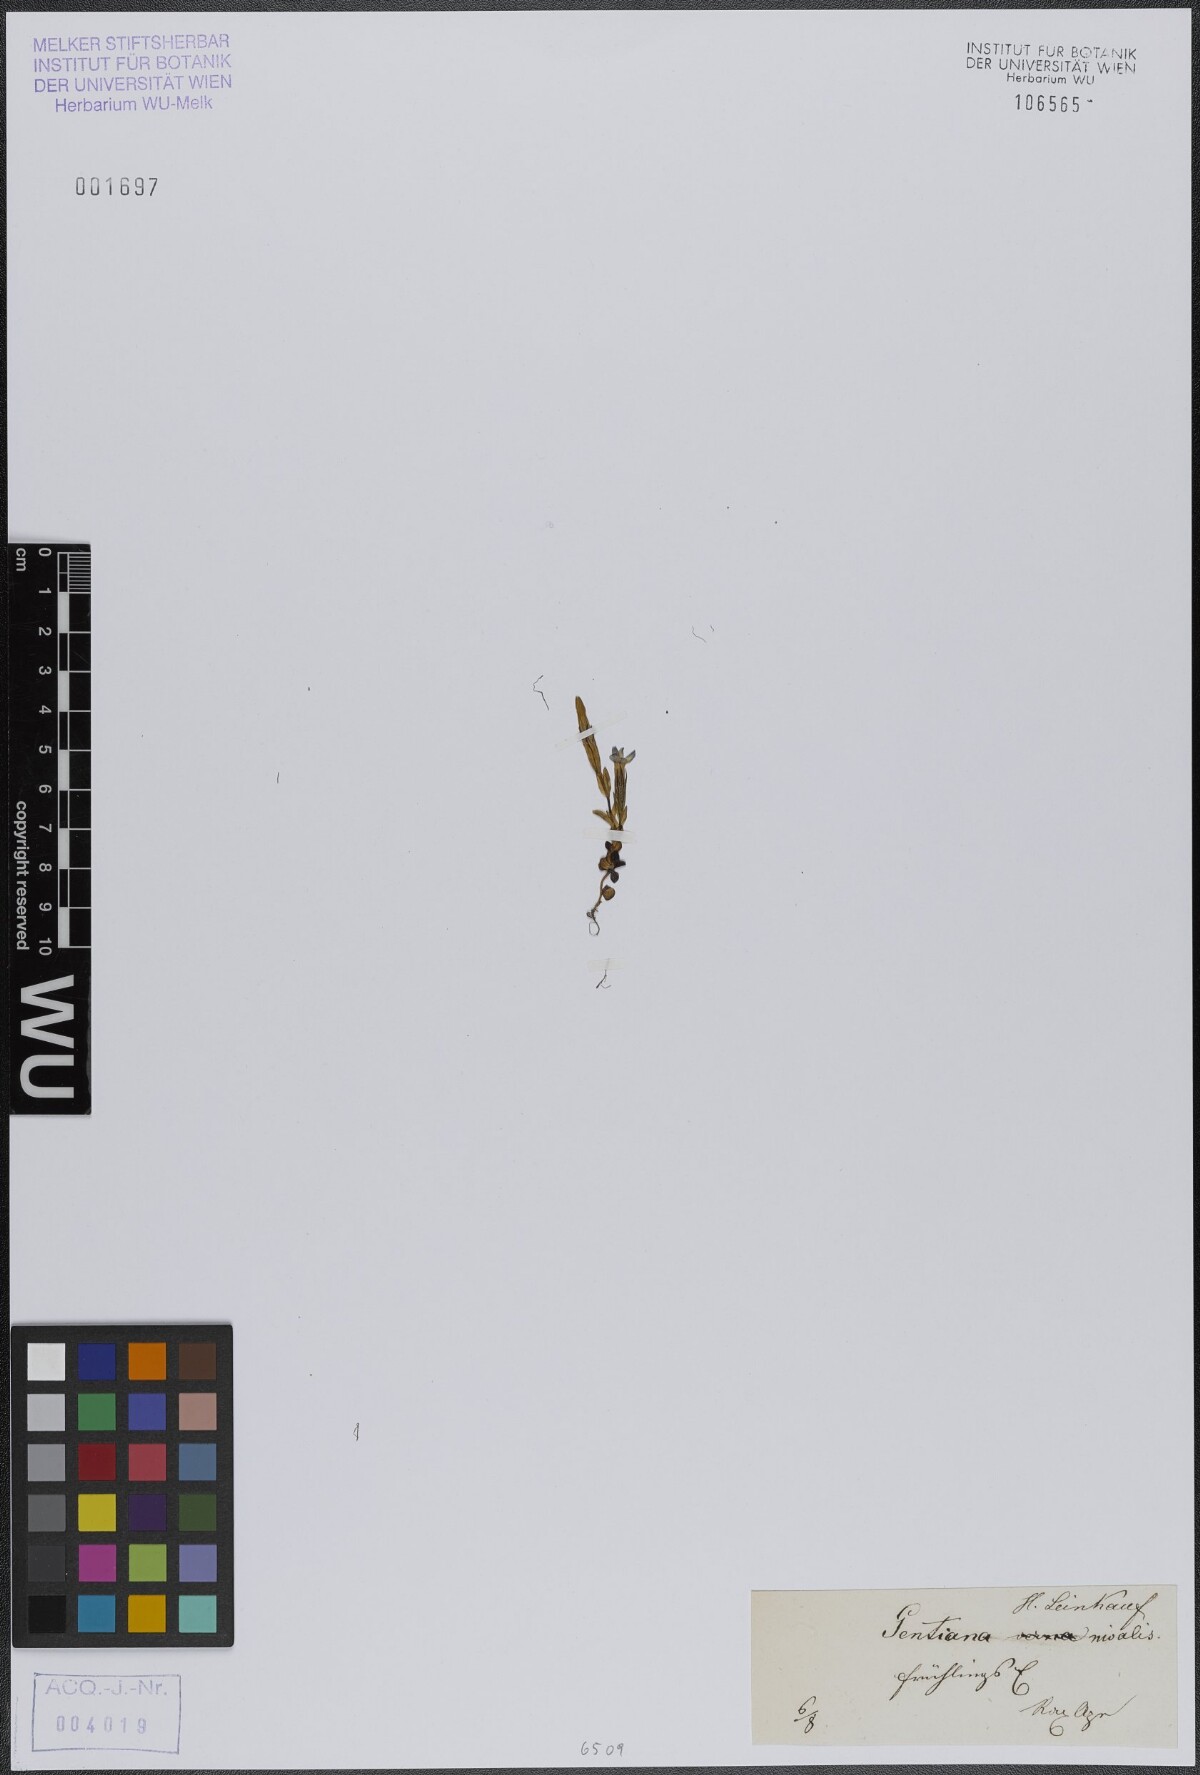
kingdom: Plantae
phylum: Tracheophyta
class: Magnoliopsida
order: Gentianales
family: Gentianaceae
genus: Gentiana
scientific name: Gentiana nivalis
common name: Alpine gentian
